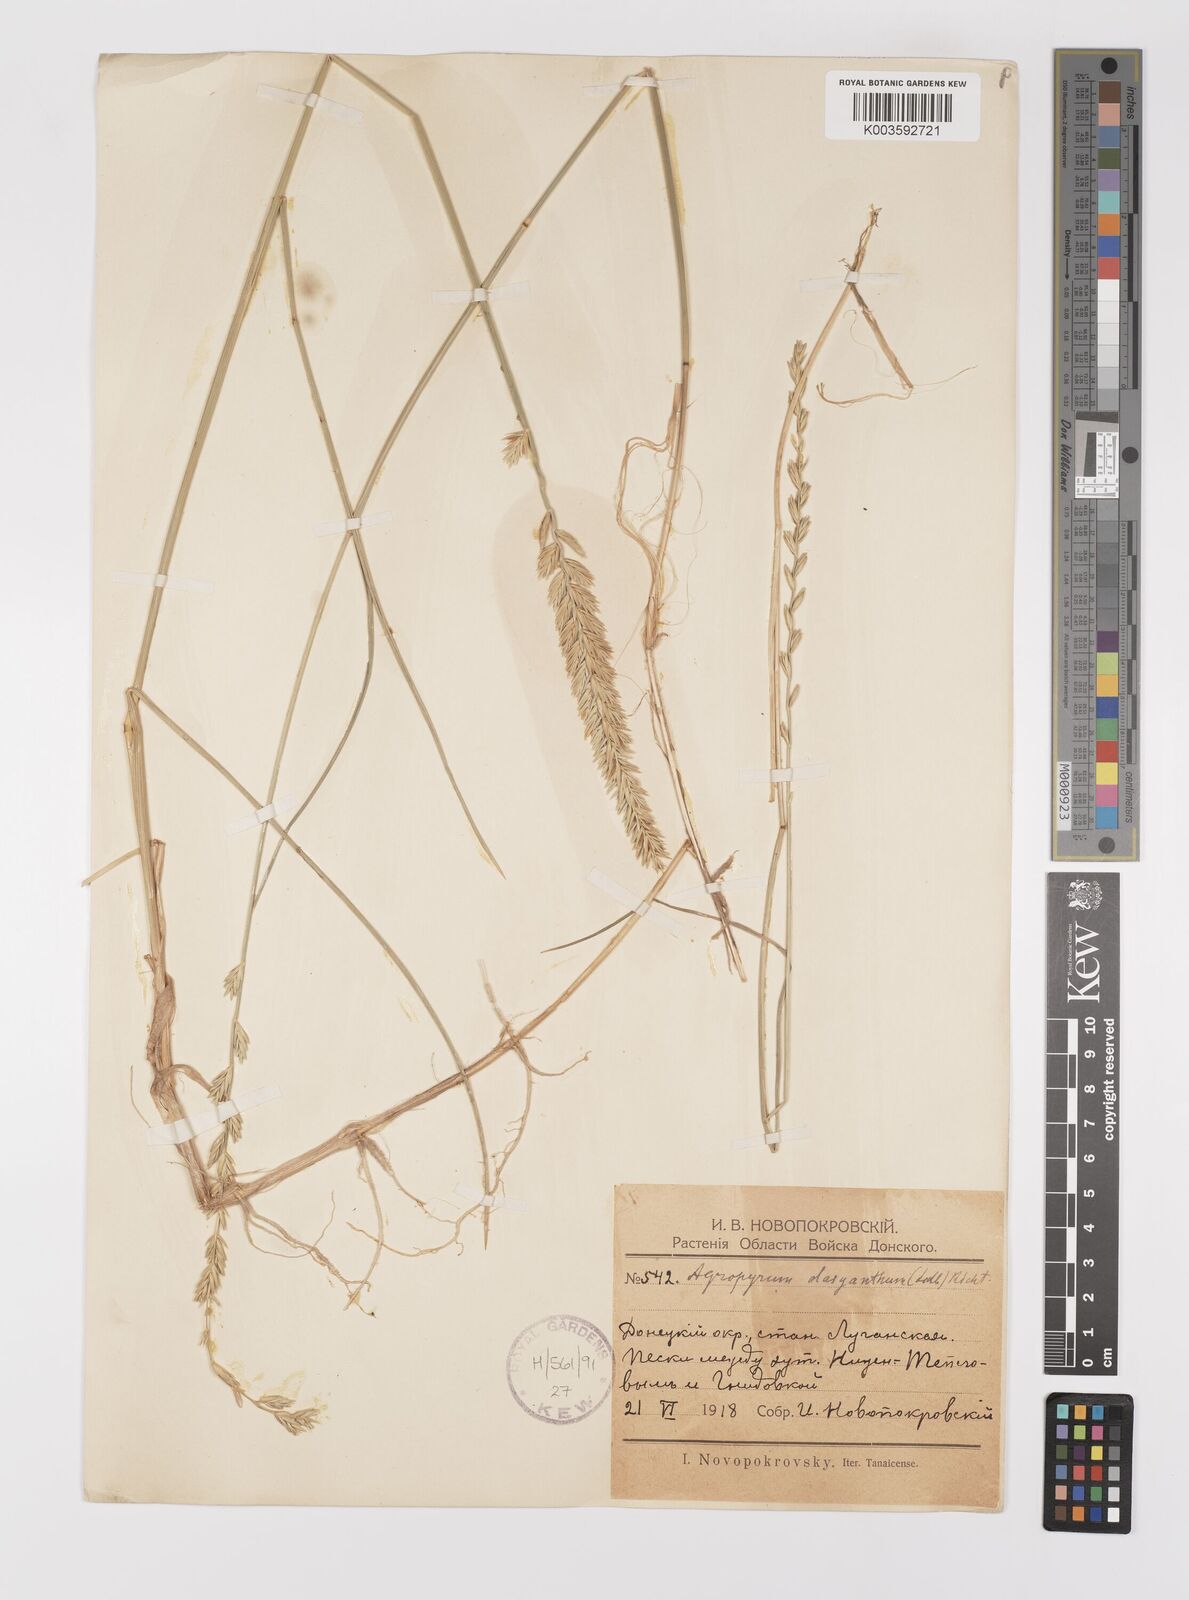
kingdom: Plantae
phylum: Tracheophyta
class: Liliopsida
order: Poales
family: Poaceae
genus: Agropyron
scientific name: Agropyron dasyanthum
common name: Edge flowered crested wheatgrass
